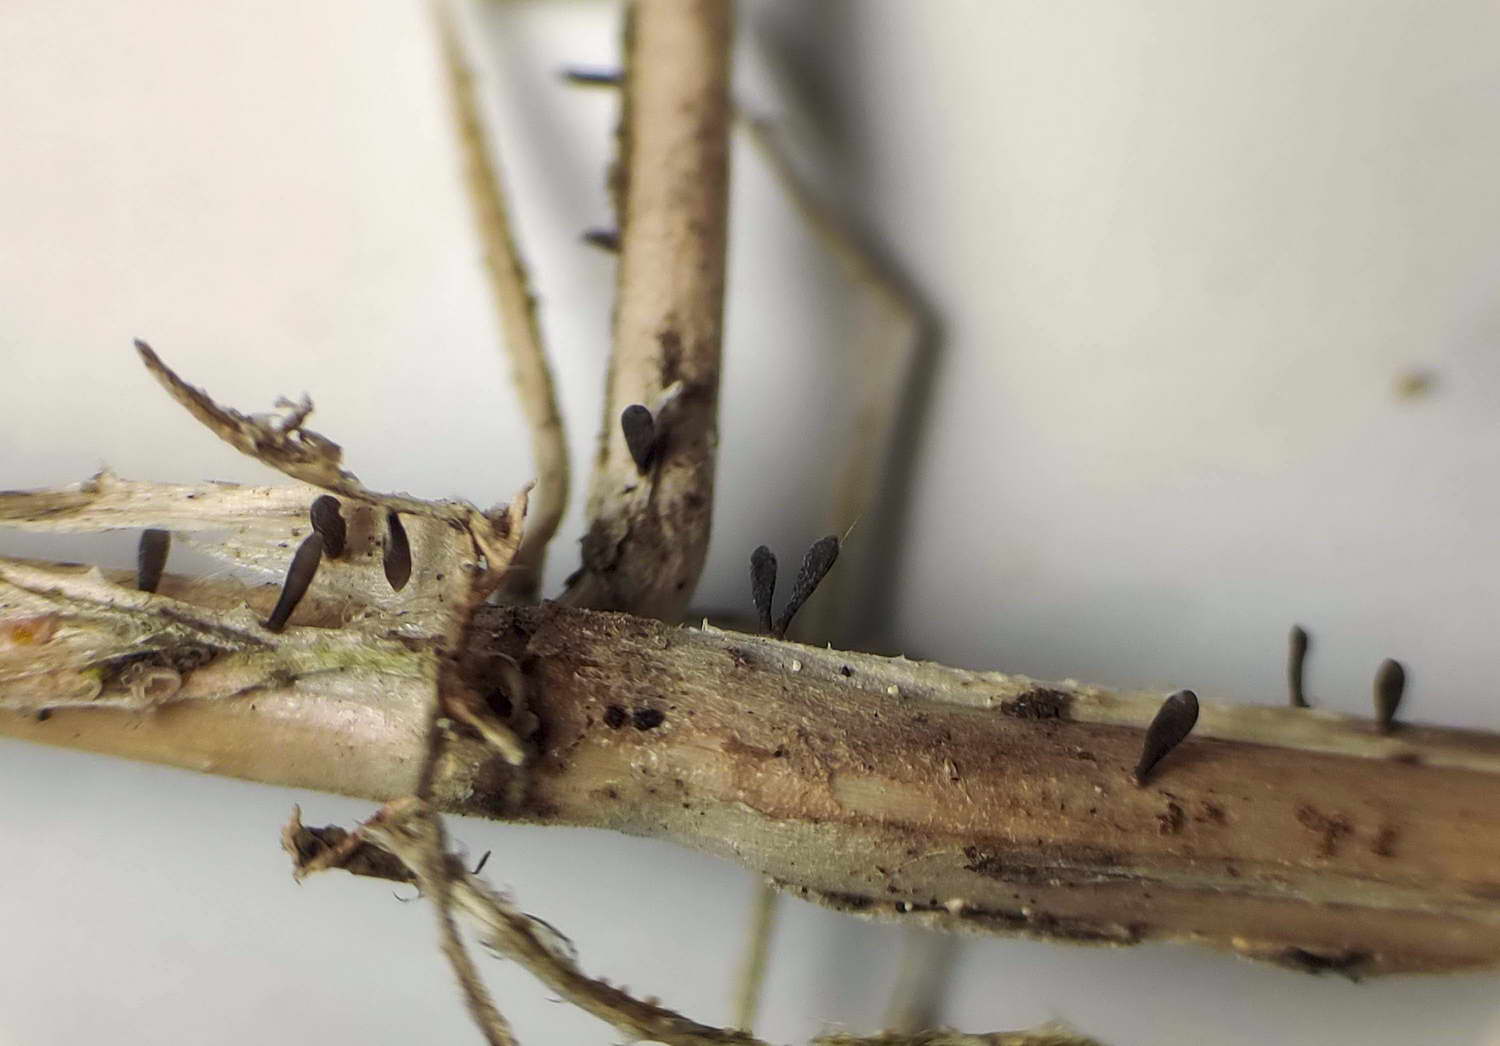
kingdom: Fungi
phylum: Ascomycota
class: Dothideomycetes
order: Acrospermales
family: Acrospermaceae
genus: Acrospermum
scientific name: Acrospermum pallidulum
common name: snerre-stængeltunge
